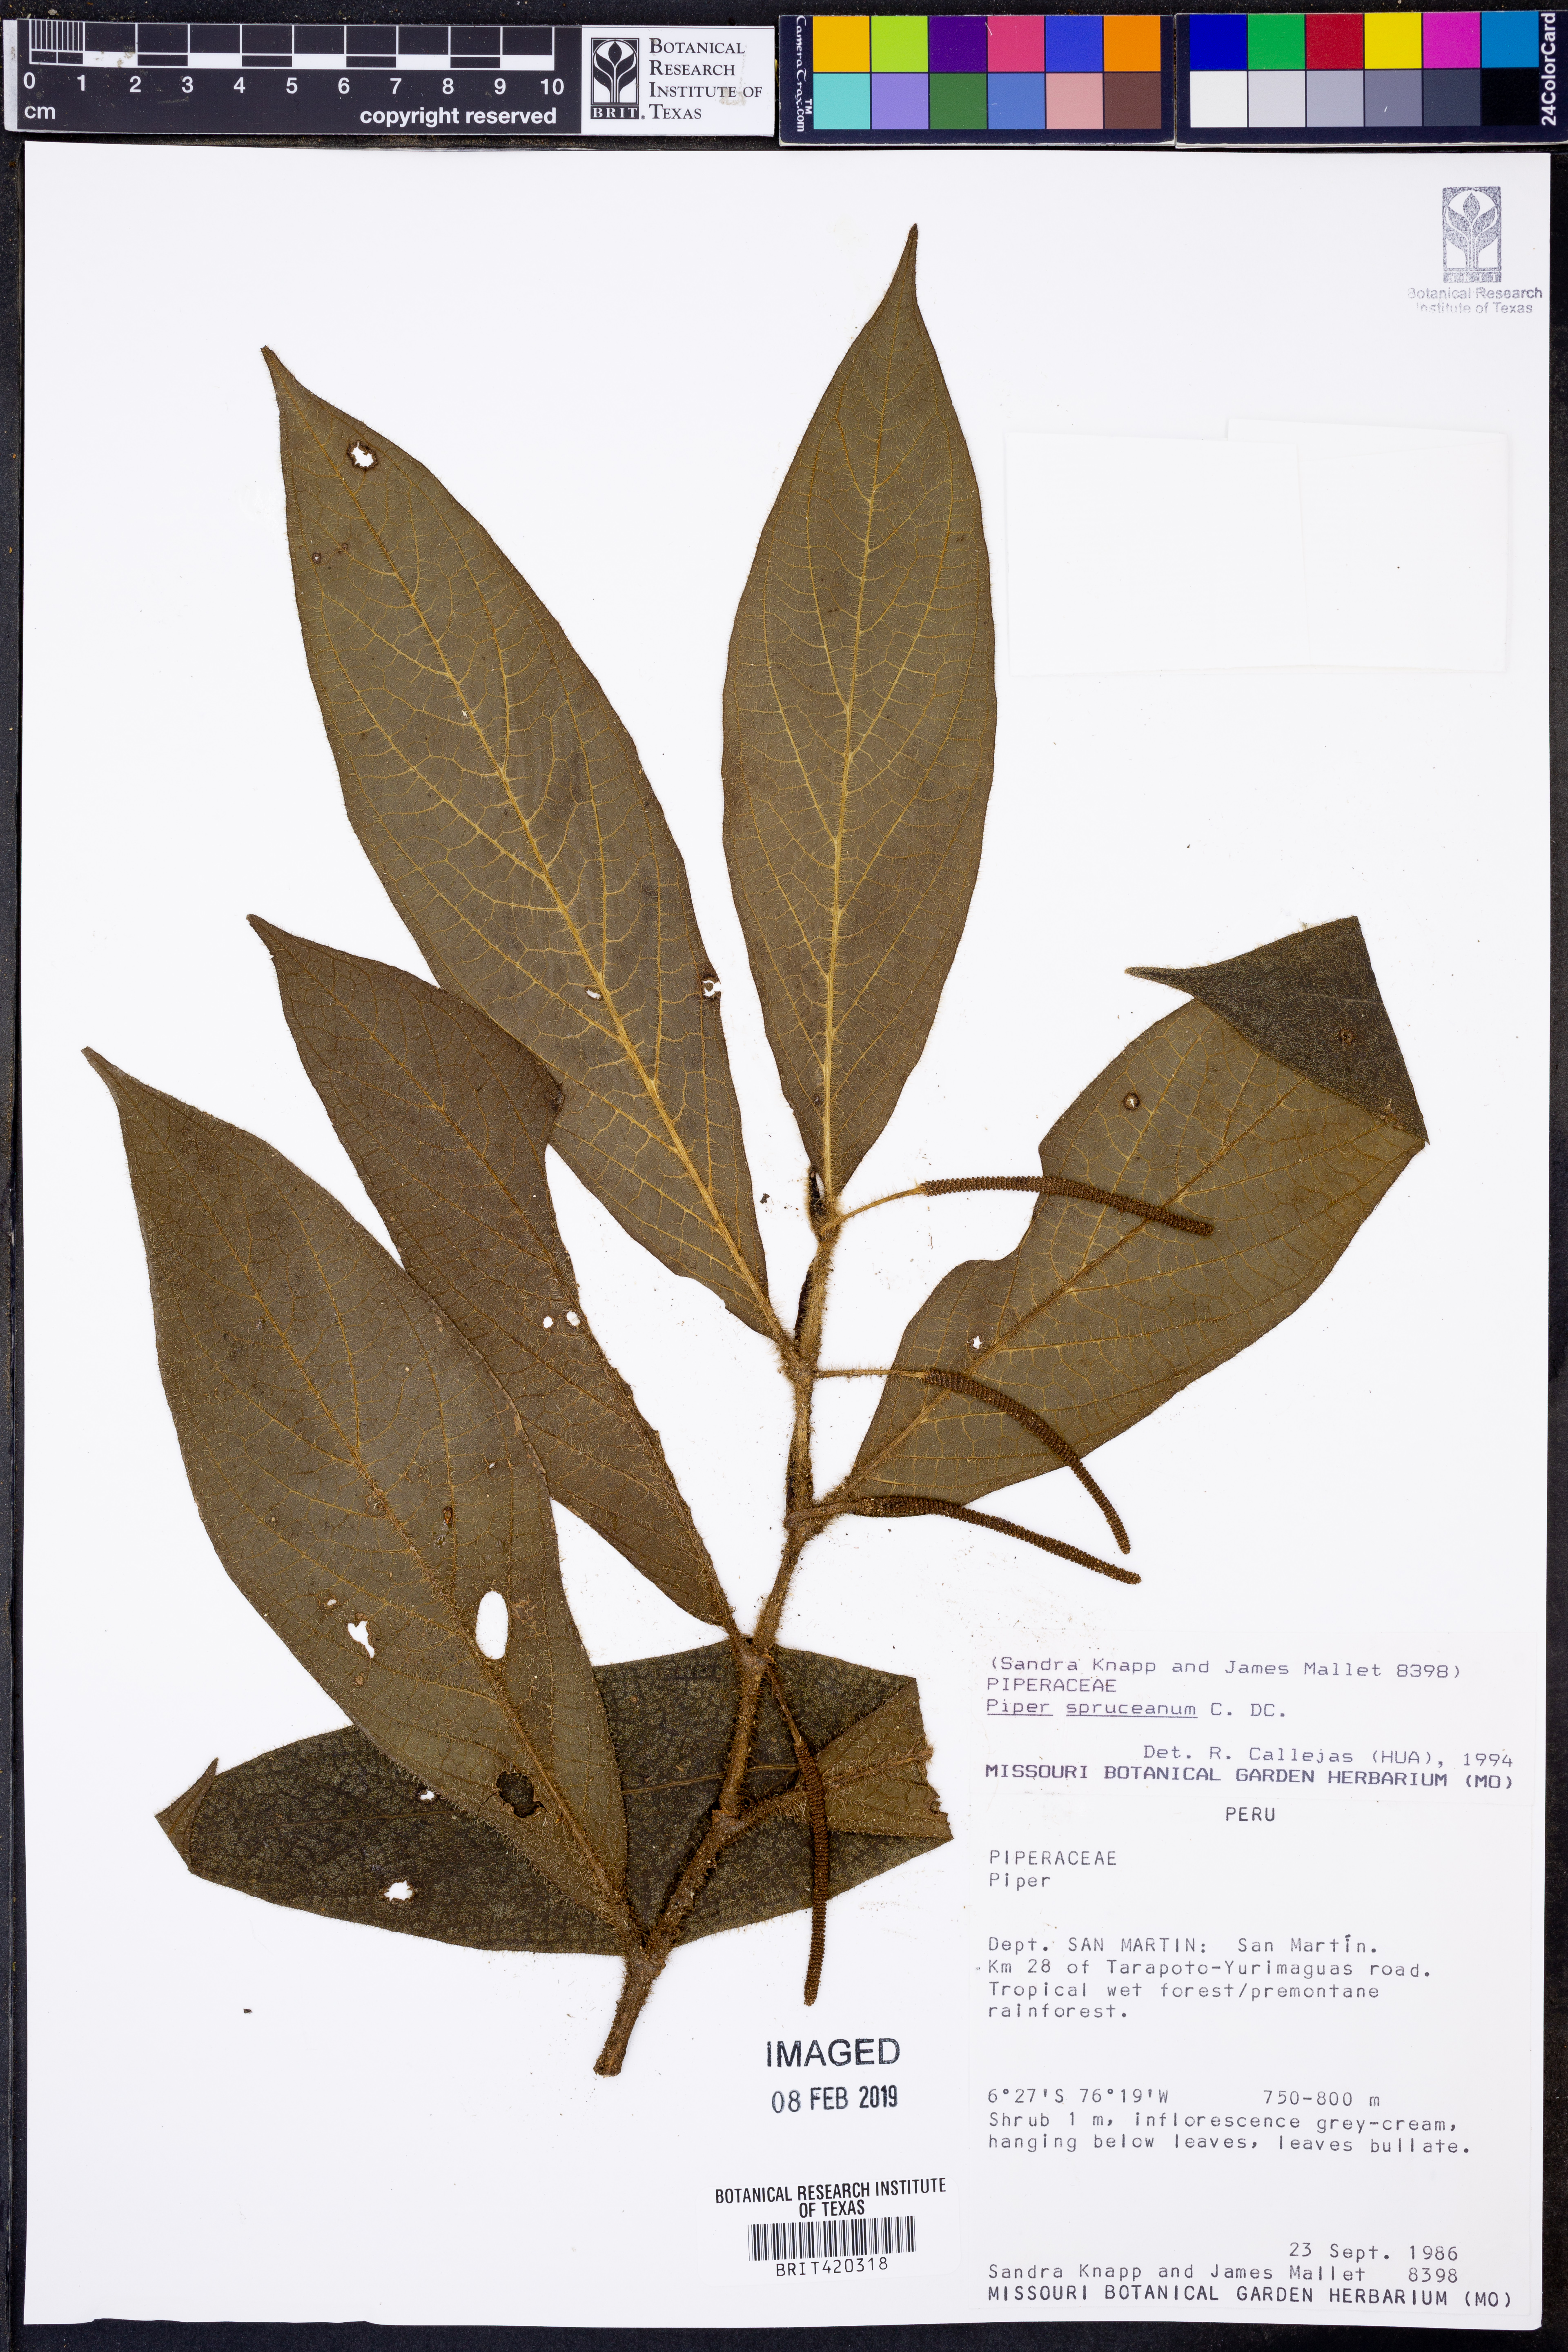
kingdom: Plantae
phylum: Tracheophyta
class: Magnoliopsida
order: Piperales
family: Piperaceae
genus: Piper
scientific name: Piper spruceanum
